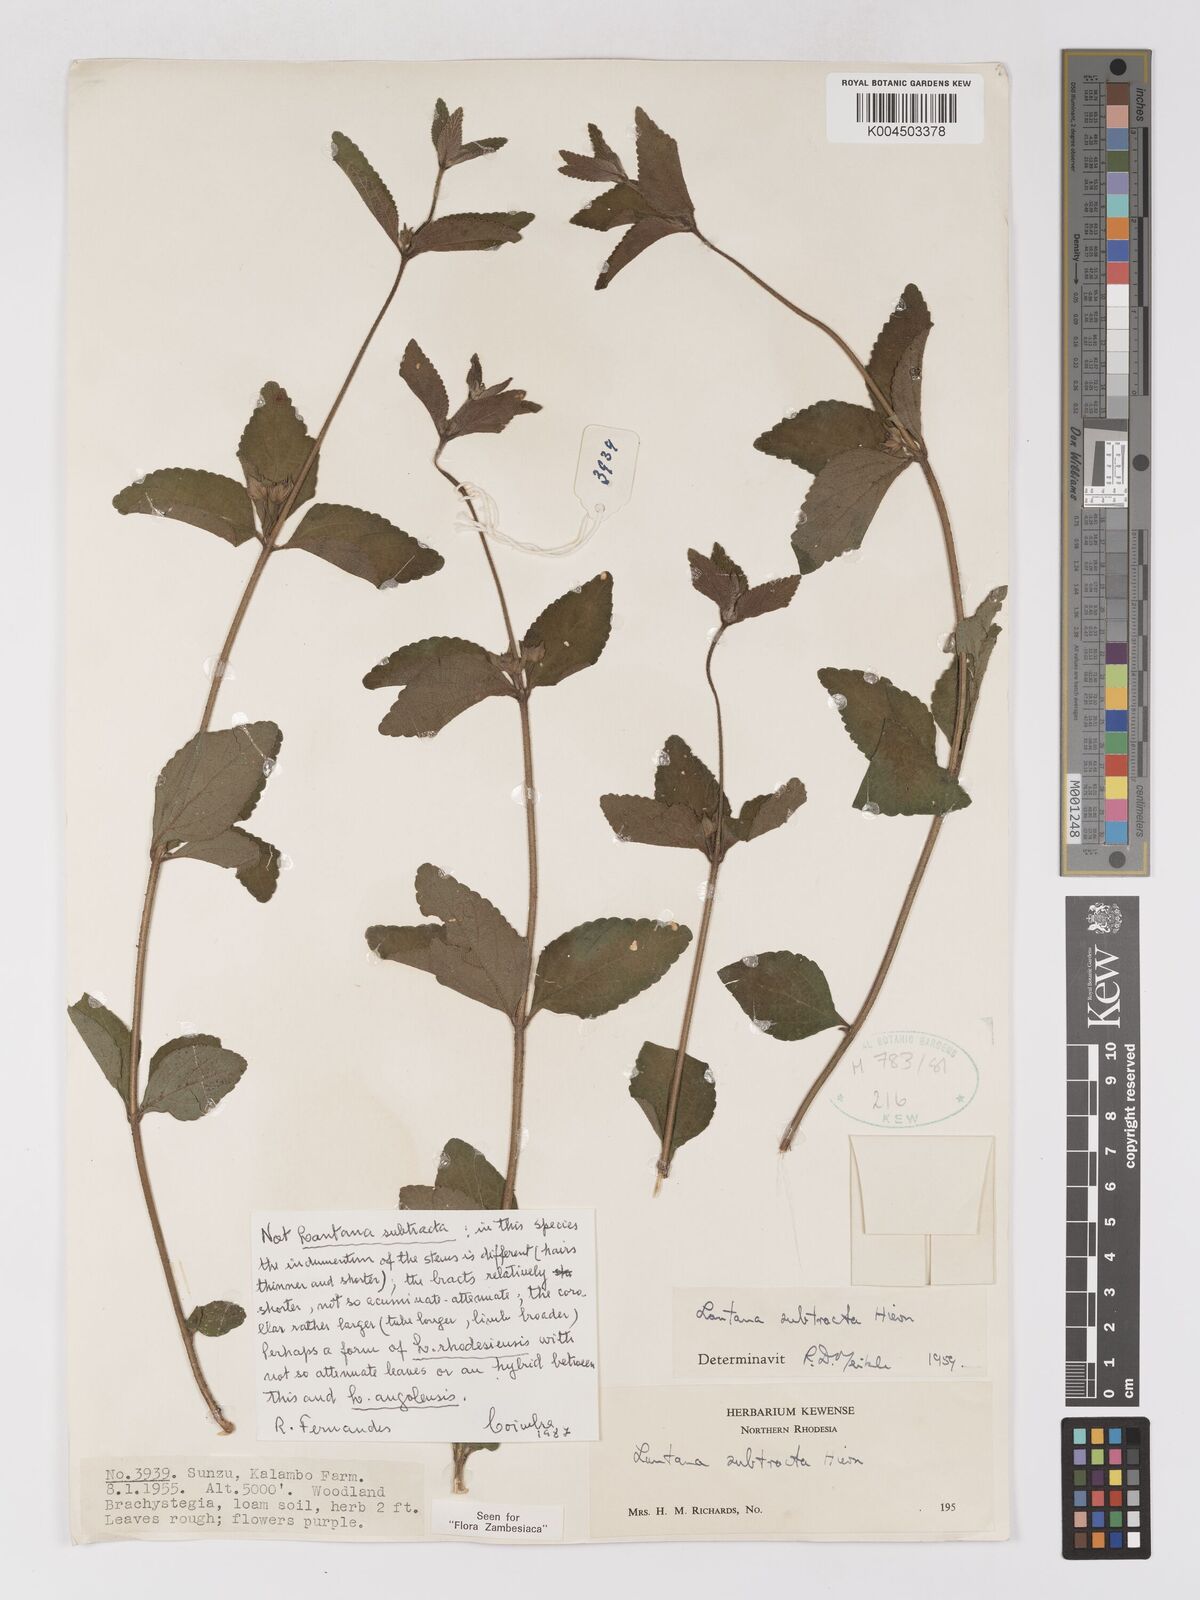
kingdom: Plantae
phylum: Tracheophyta
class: Magnoliopsida
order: Lamiales
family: Verbenaceae
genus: Lantana
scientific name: Lantana ukambensis
